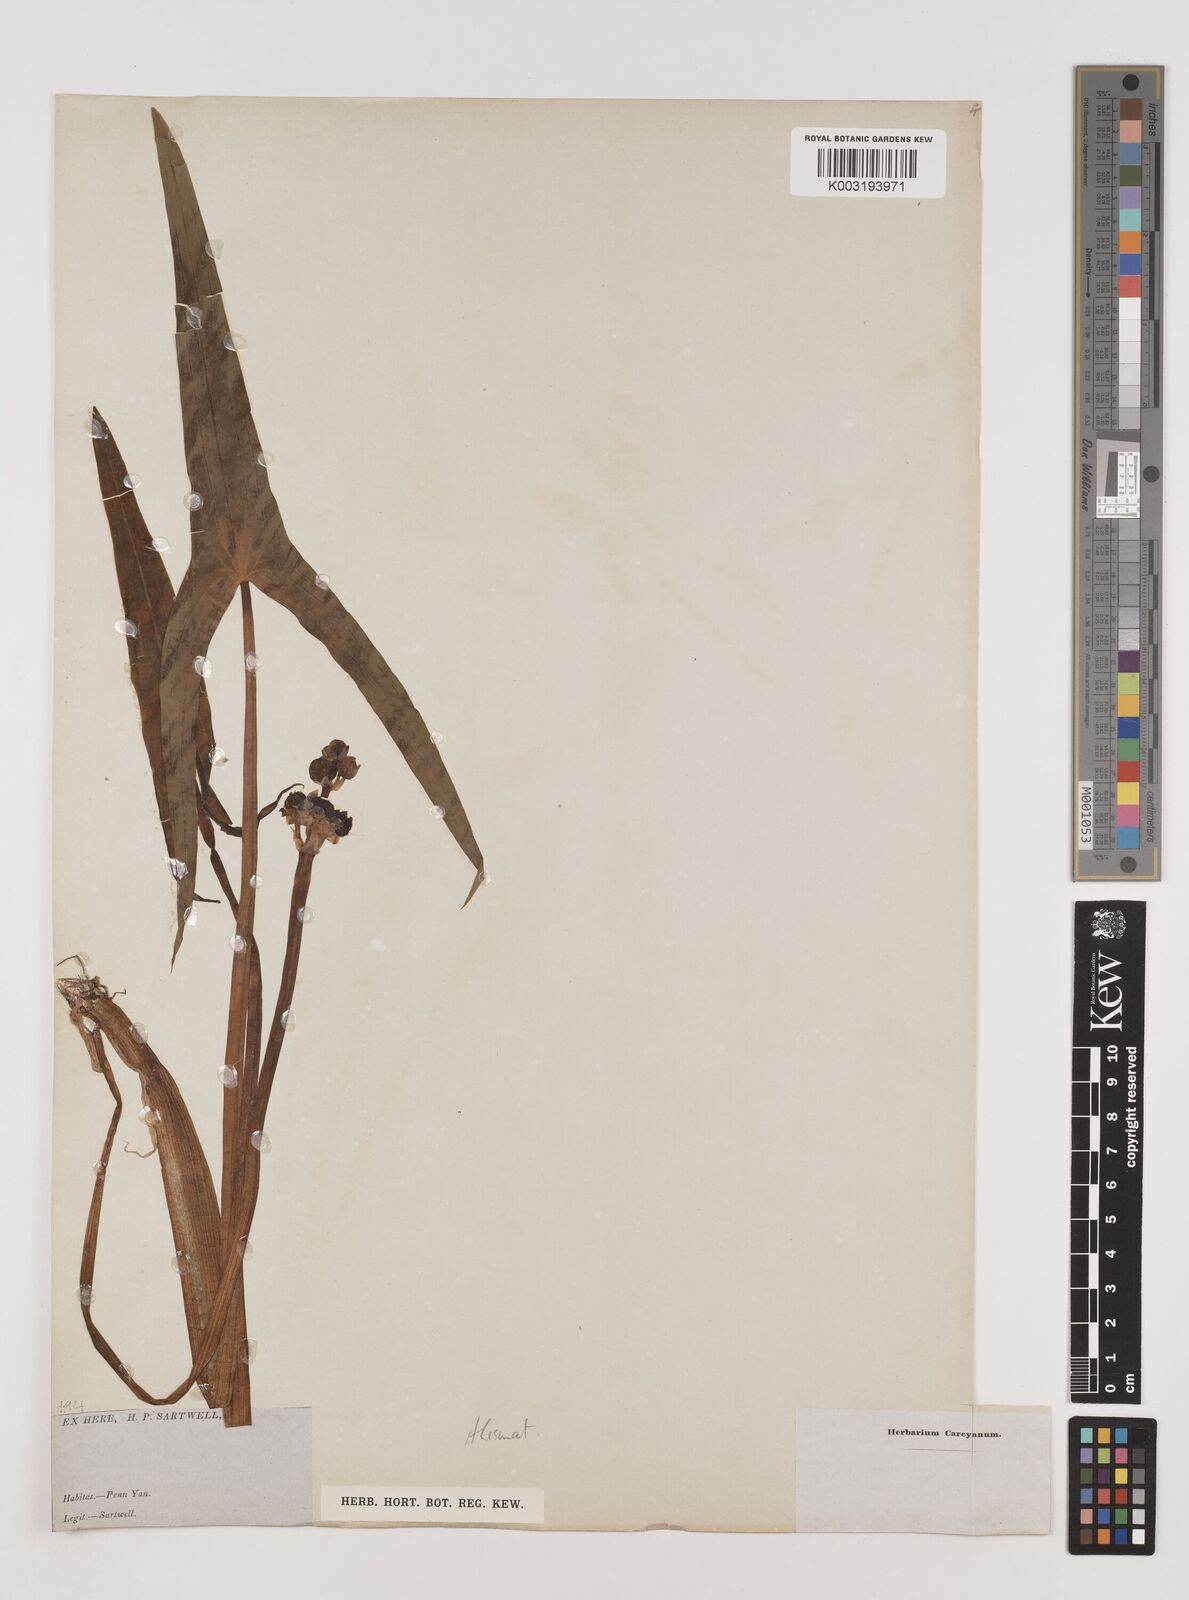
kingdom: Plantae
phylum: Tracheophyta
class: Liliopsida
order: Alismatales
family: Alismataceae
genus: Sagittaria
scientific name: Sagittaria
